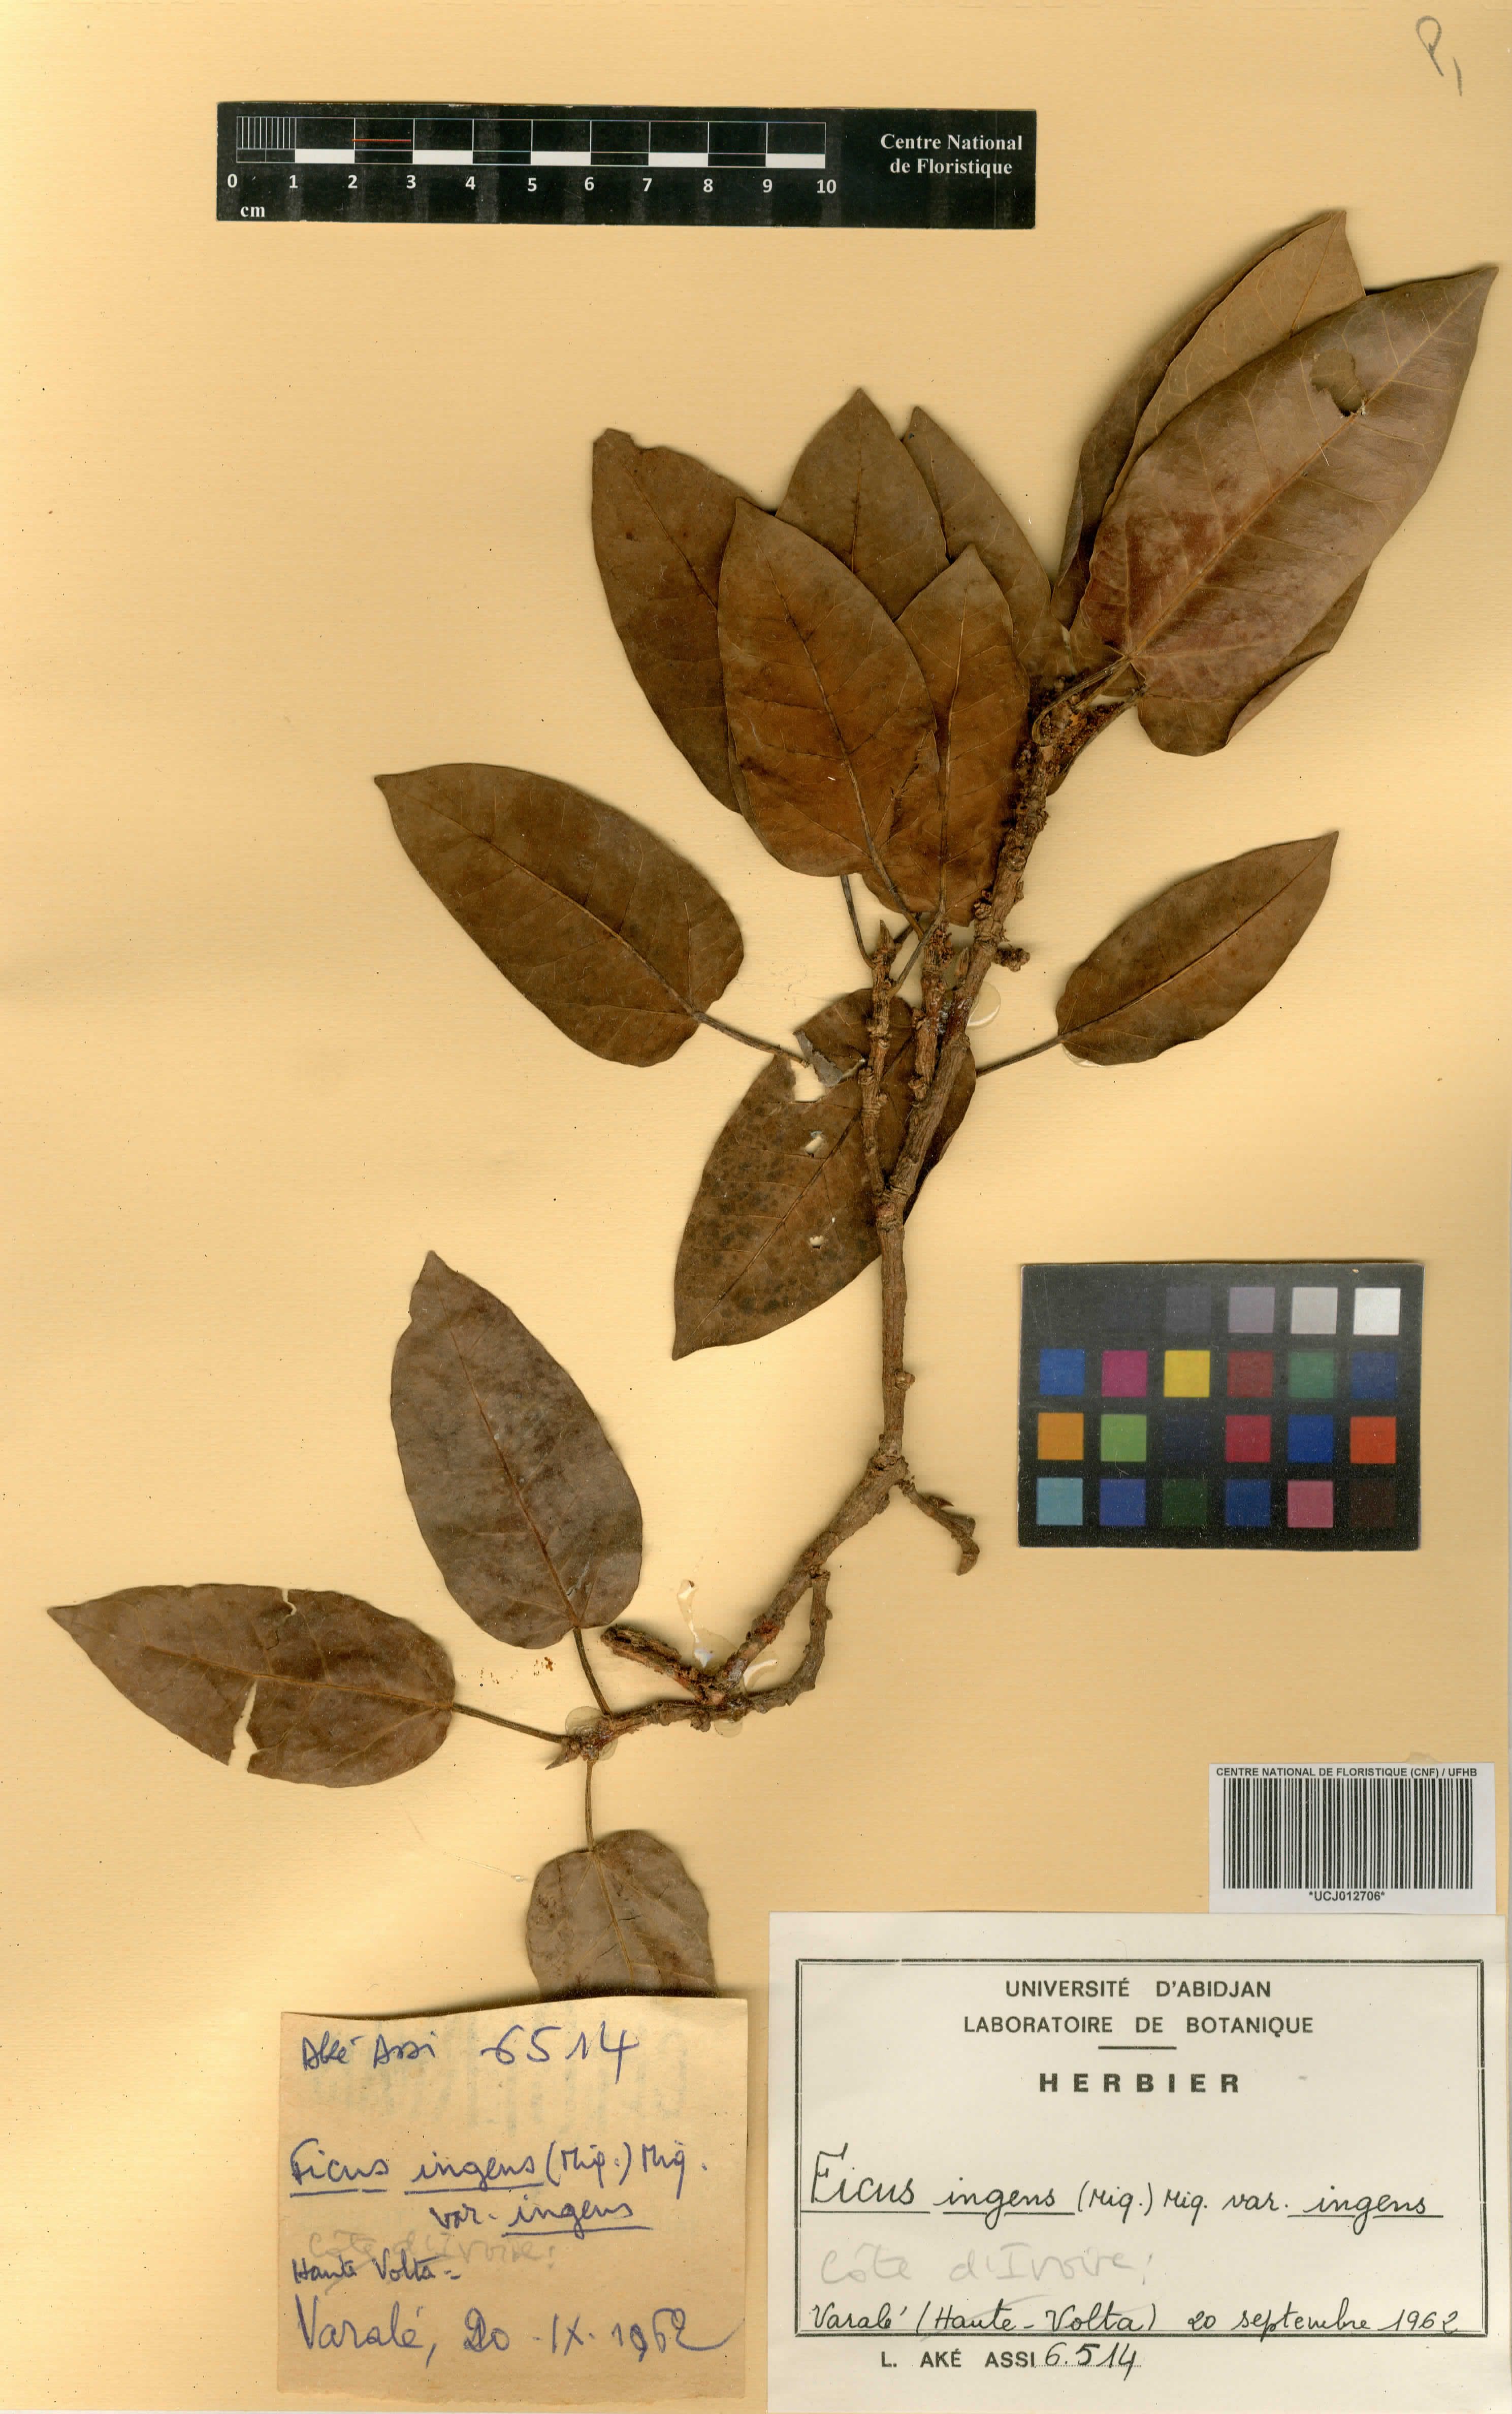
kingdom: Plantae
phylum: Tracheophyta
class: Magnoliopsida
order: Rosales
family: Moraceae
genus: Ficus
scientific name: Ficus ingens
